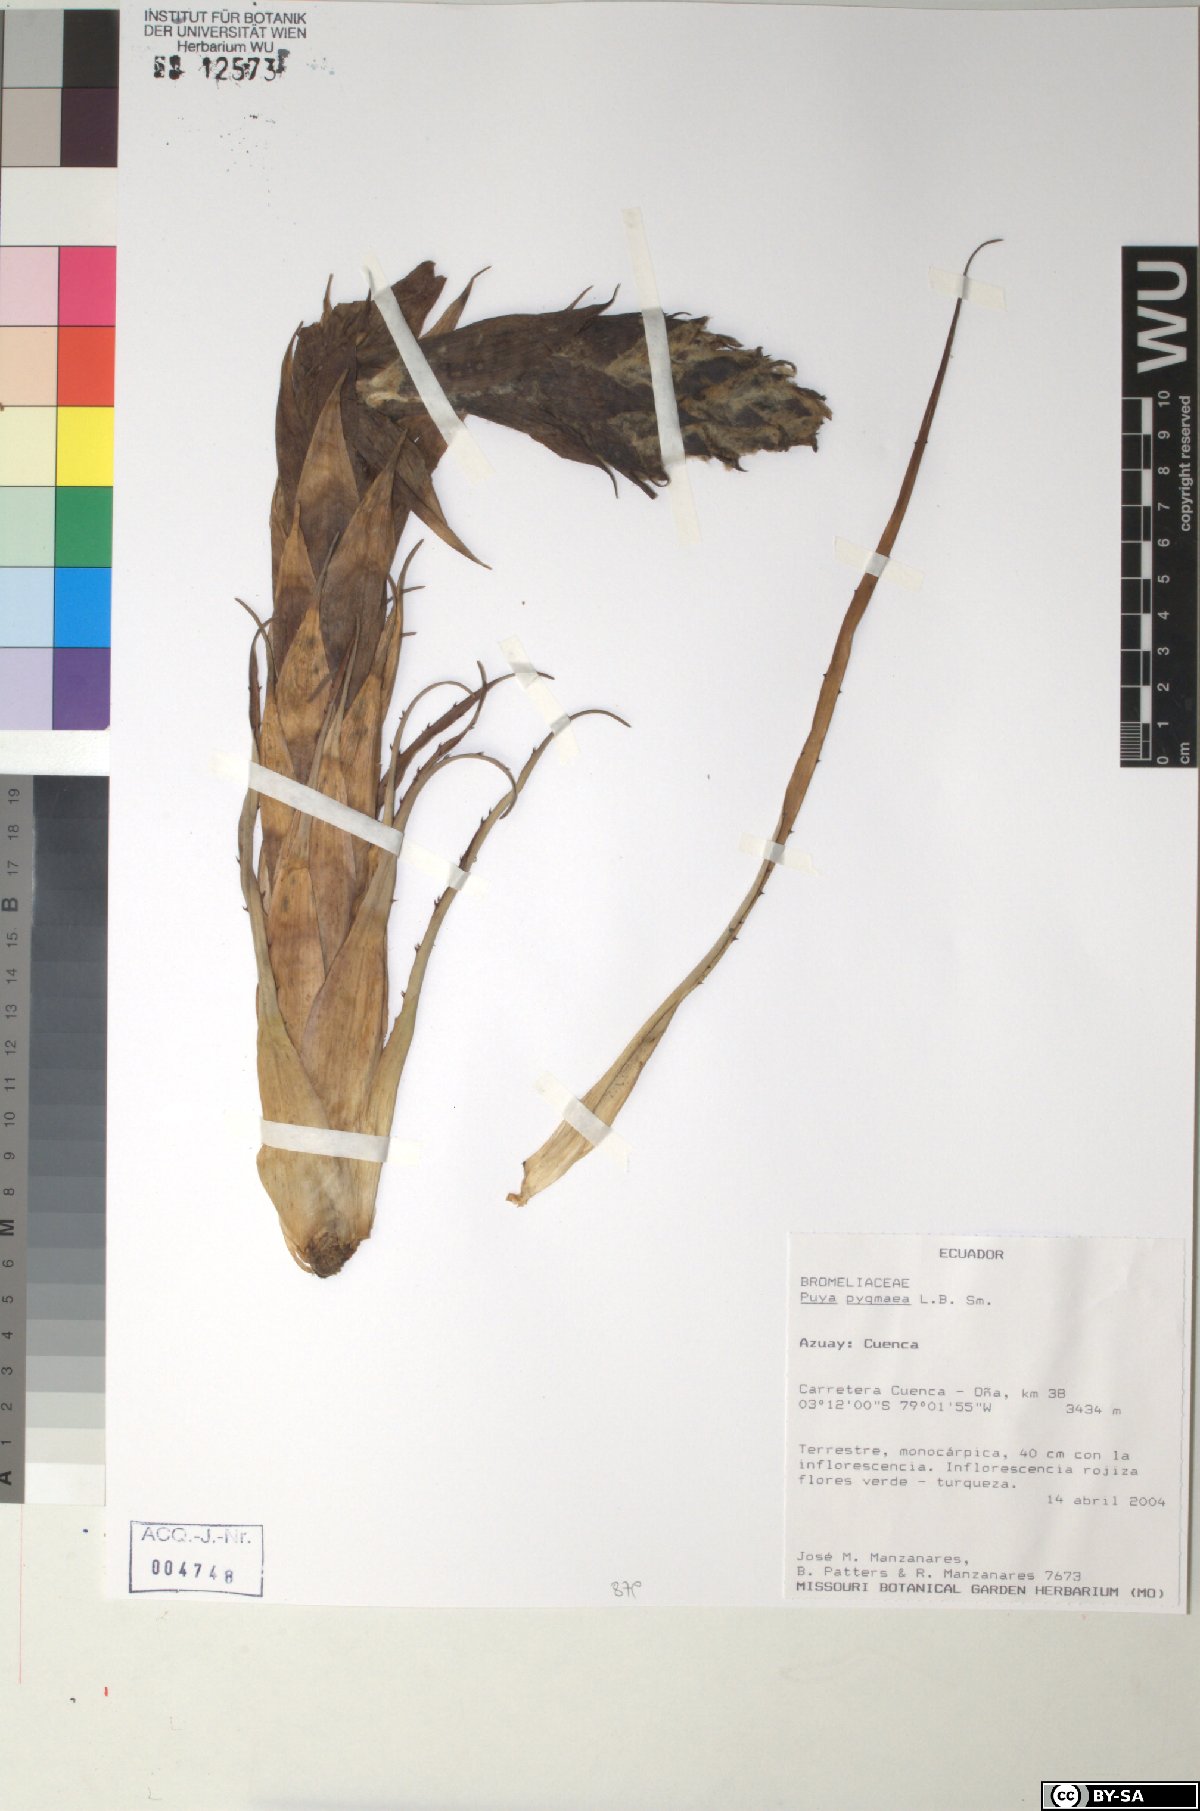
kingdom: Plantae
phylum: Tracheophyta
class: Liliopsida
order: Poales
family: Bromeliaceae
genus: Puya
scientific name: Puya pygmaea
